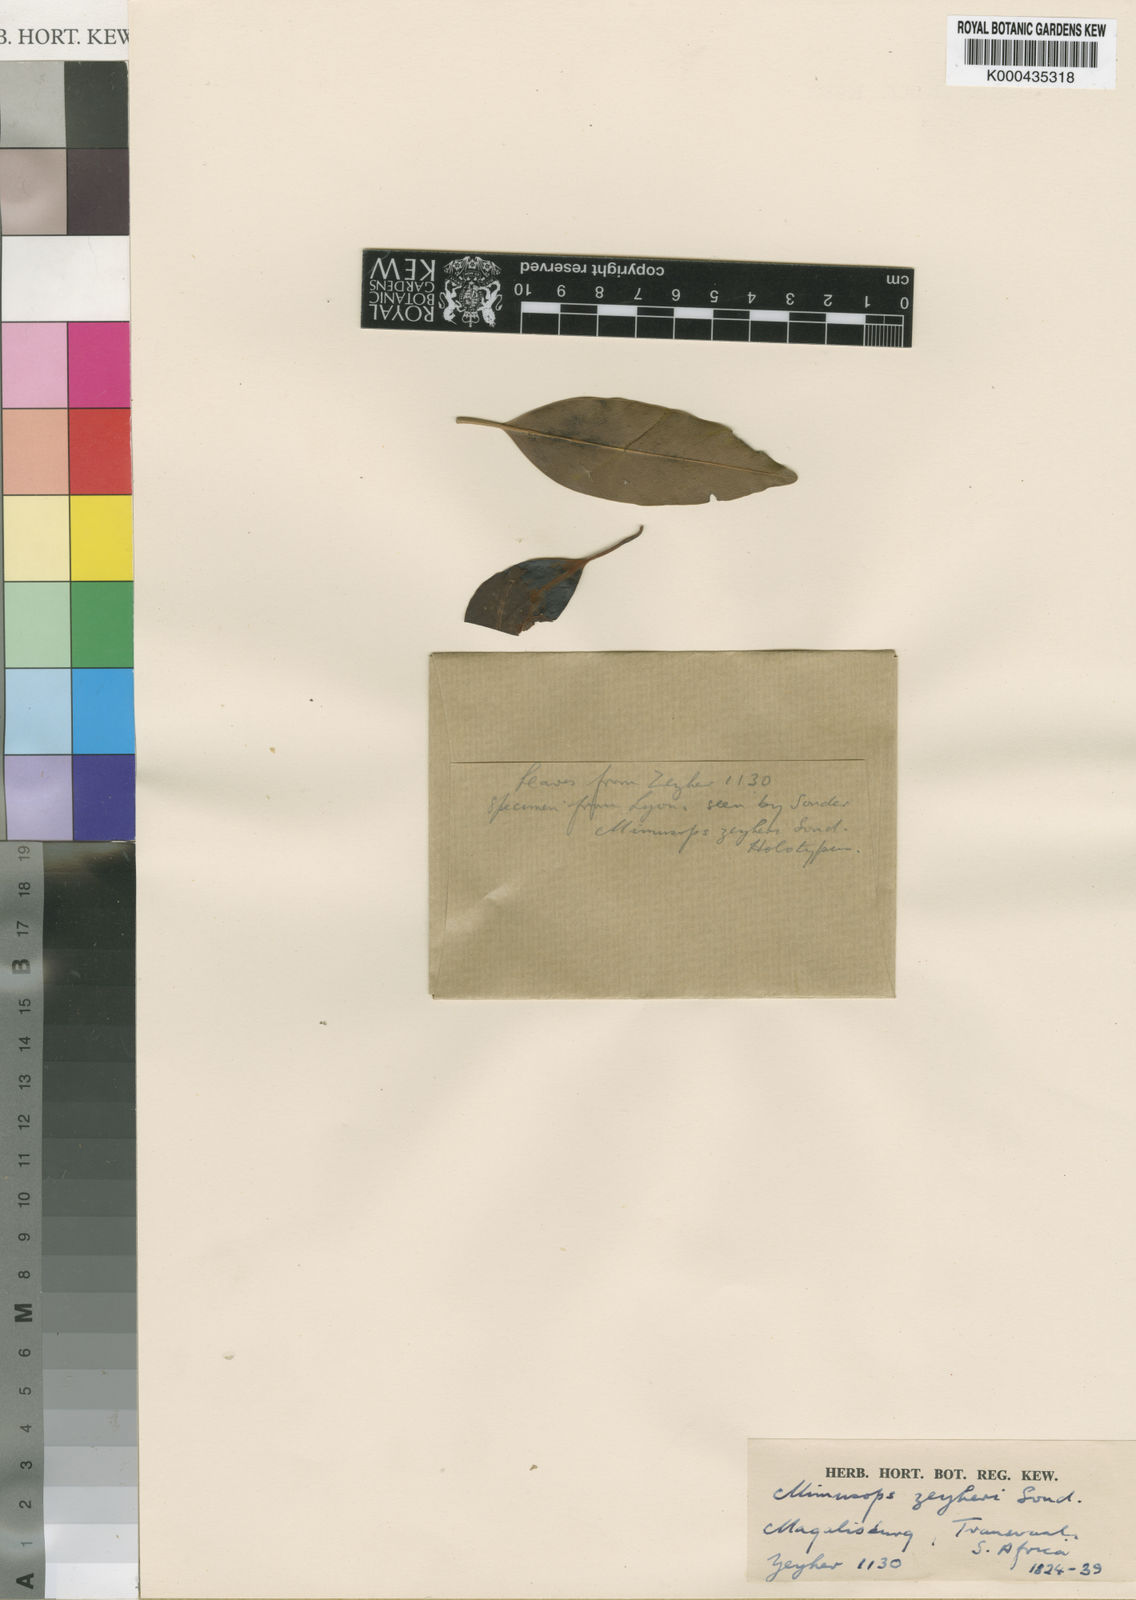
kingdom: Plantae
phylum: Tracheophyta
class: Magnoliopsida
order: Ericales
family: Sapotaceae
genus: Mimusops
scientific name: Mimusops zeyheri
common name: Transvaal red milkwood
